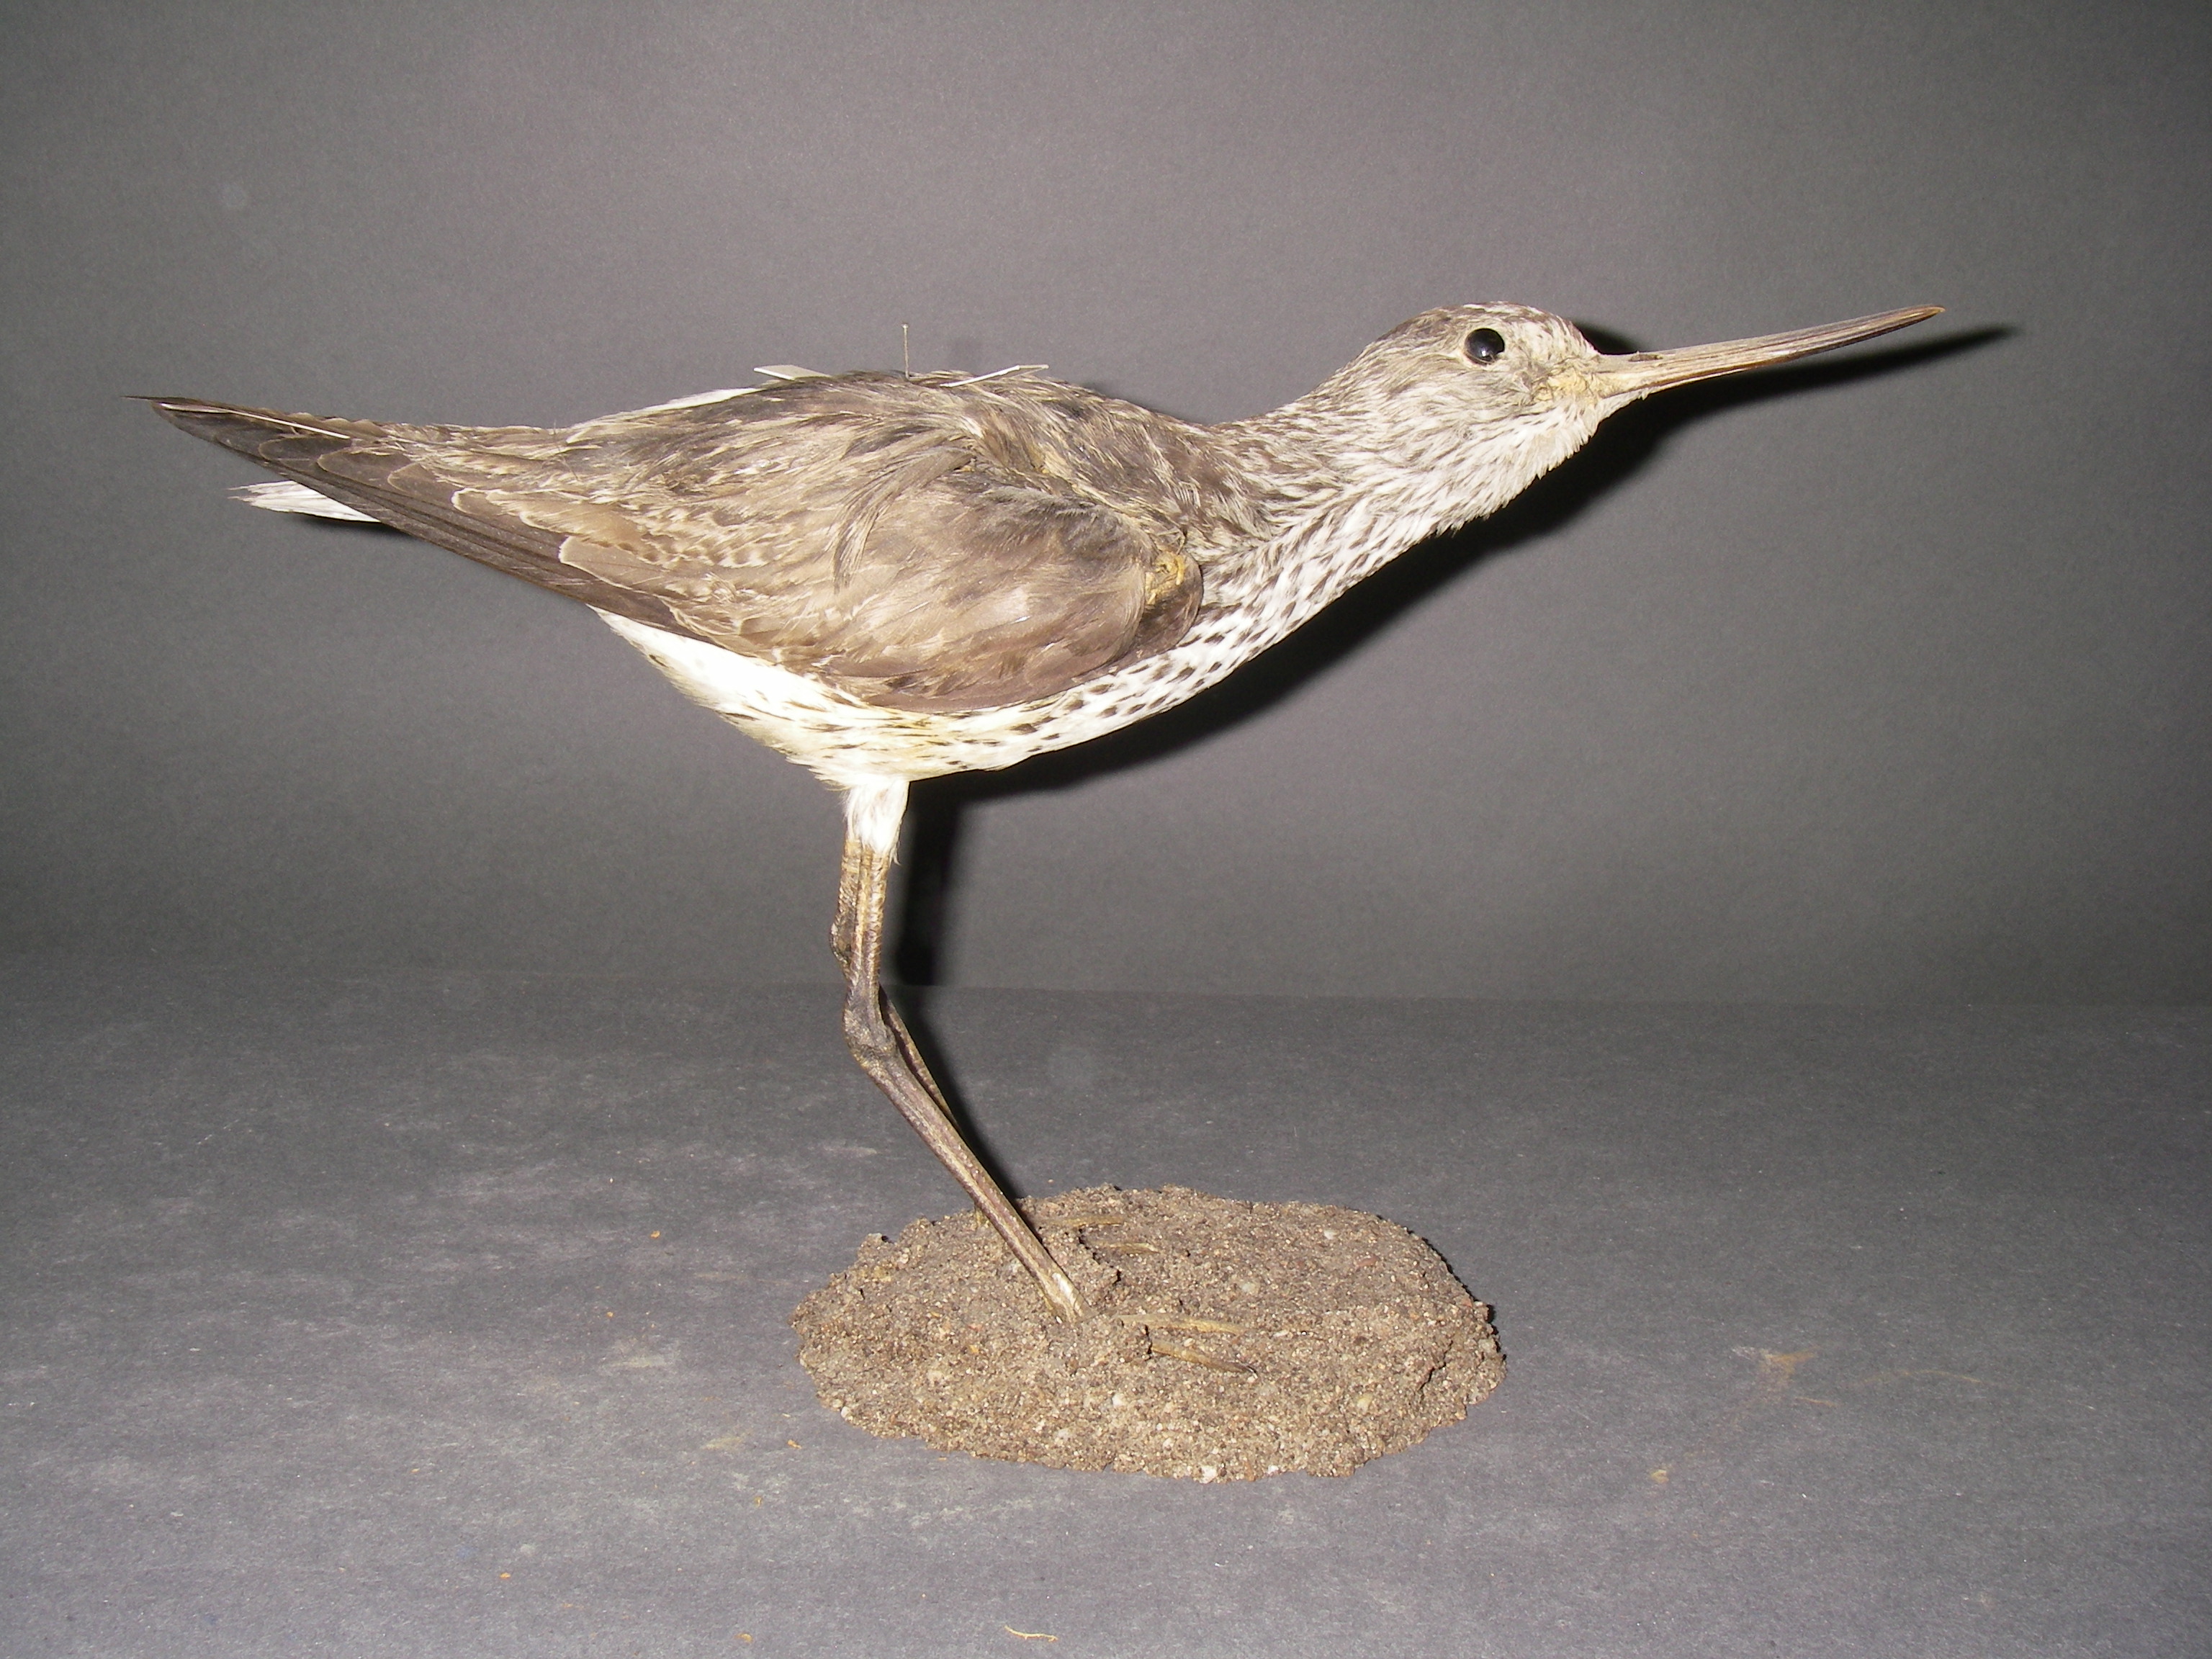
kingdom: Animalia
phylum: Chordata
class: Aves
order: Charadriiformes
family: Scolopacidae
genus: Tringa
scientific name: Tringa nebularia
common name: Common greenshank
